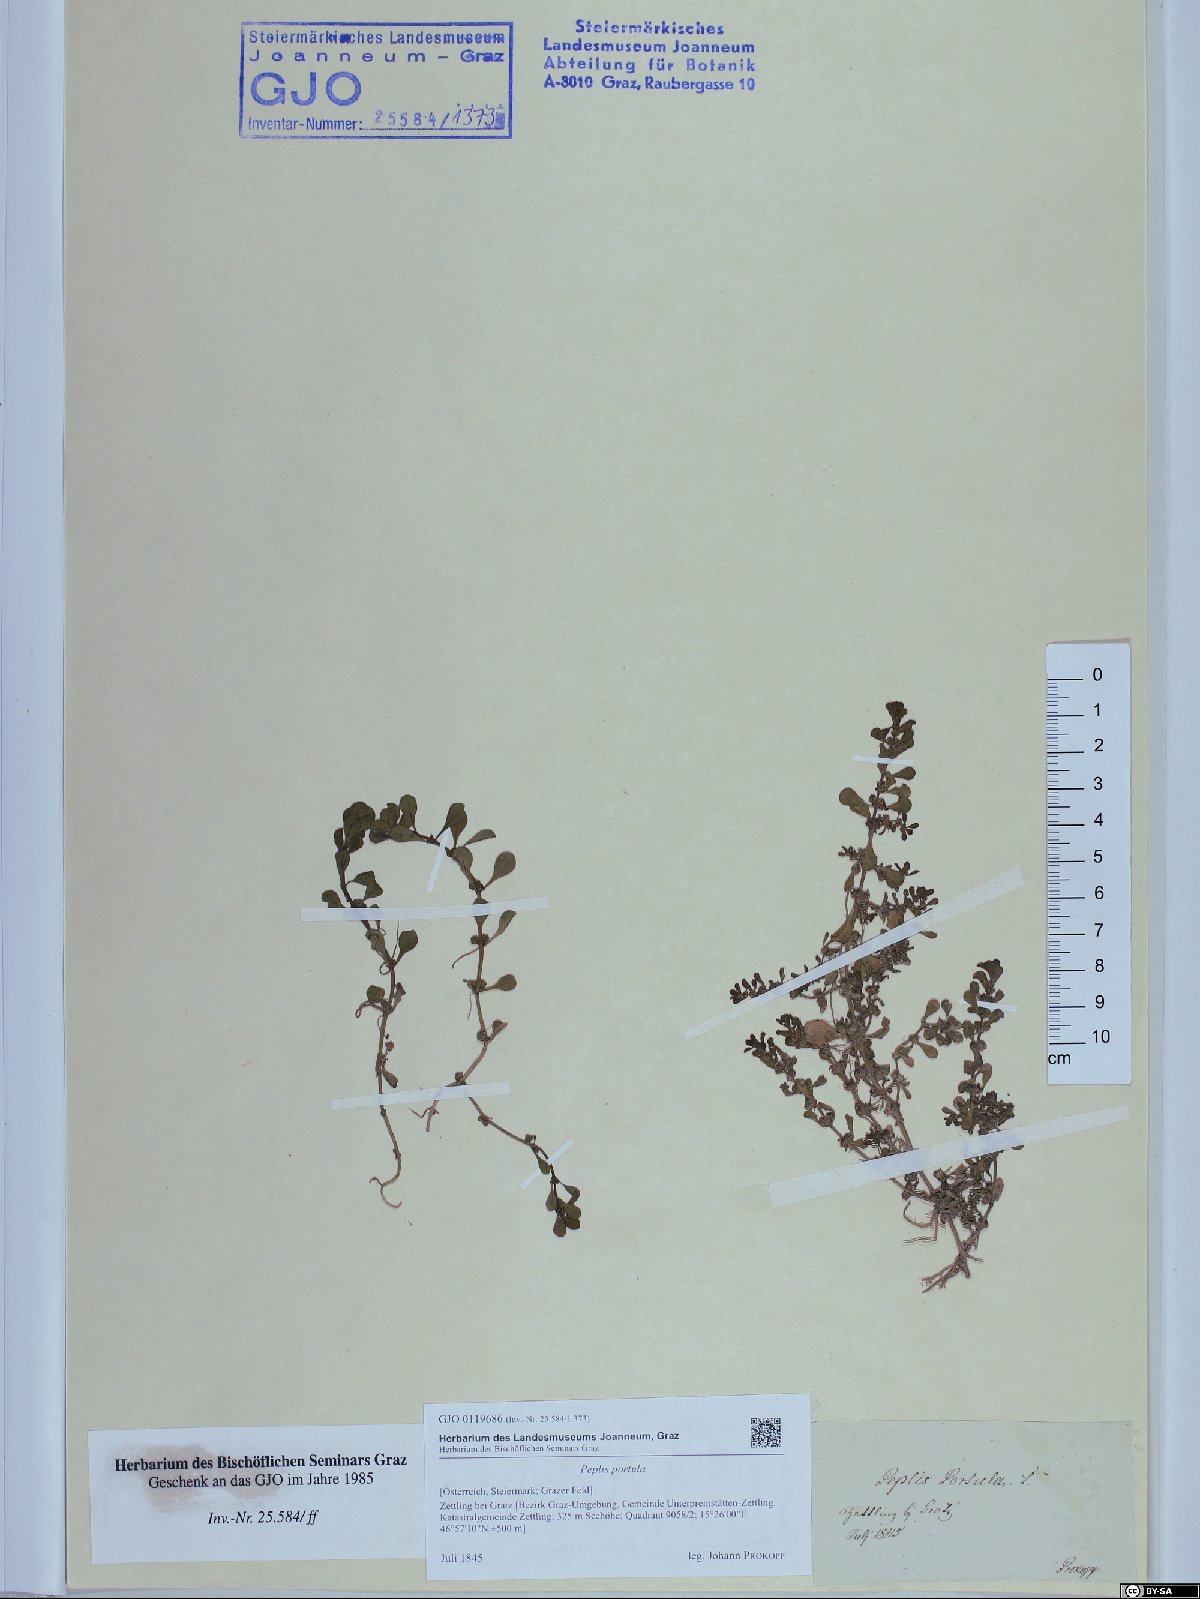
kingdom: Plantae
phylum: Tracheophyta
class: Magnoliopsida
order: Myrtales
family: Lythraceae
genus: Lythrum
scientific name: Lythrum portula
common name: Water purslane
